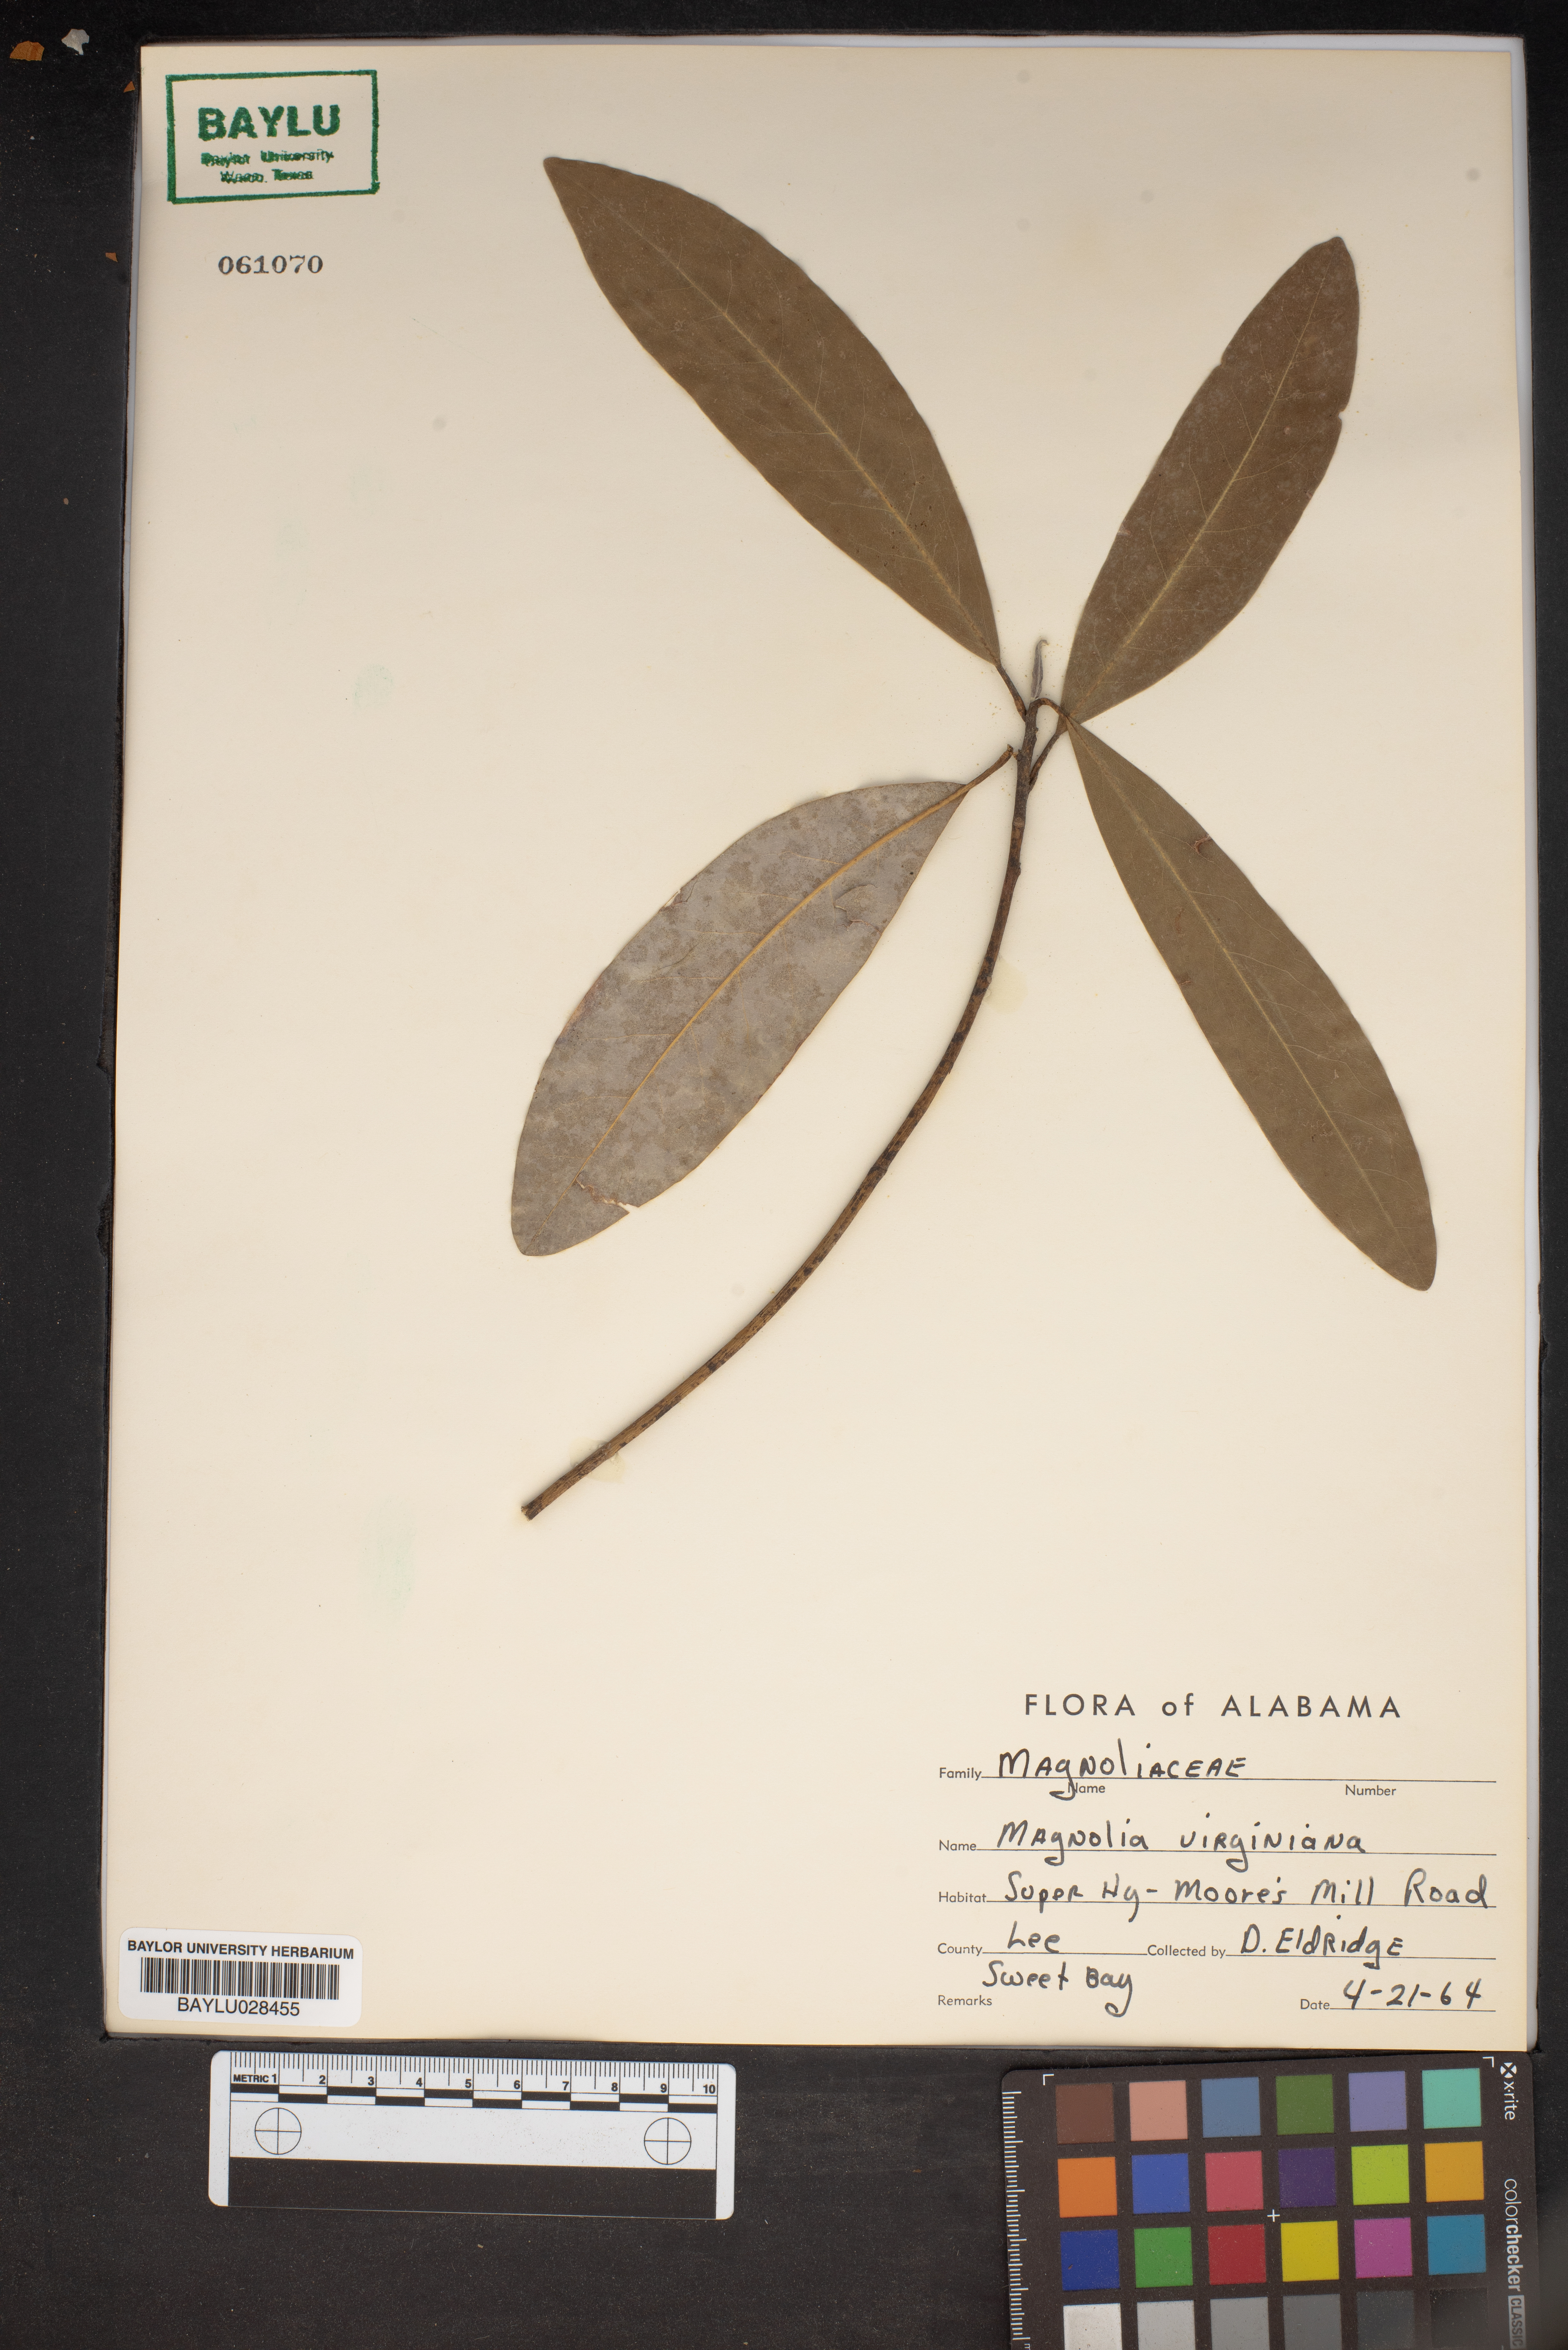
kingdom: Plantae
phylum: Tracheophyta
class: Magnoliopsida
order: Magnoliales
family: Magnoliaceae
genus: Magnolia
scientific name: Magnolia virginiana
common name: Swamp bay
